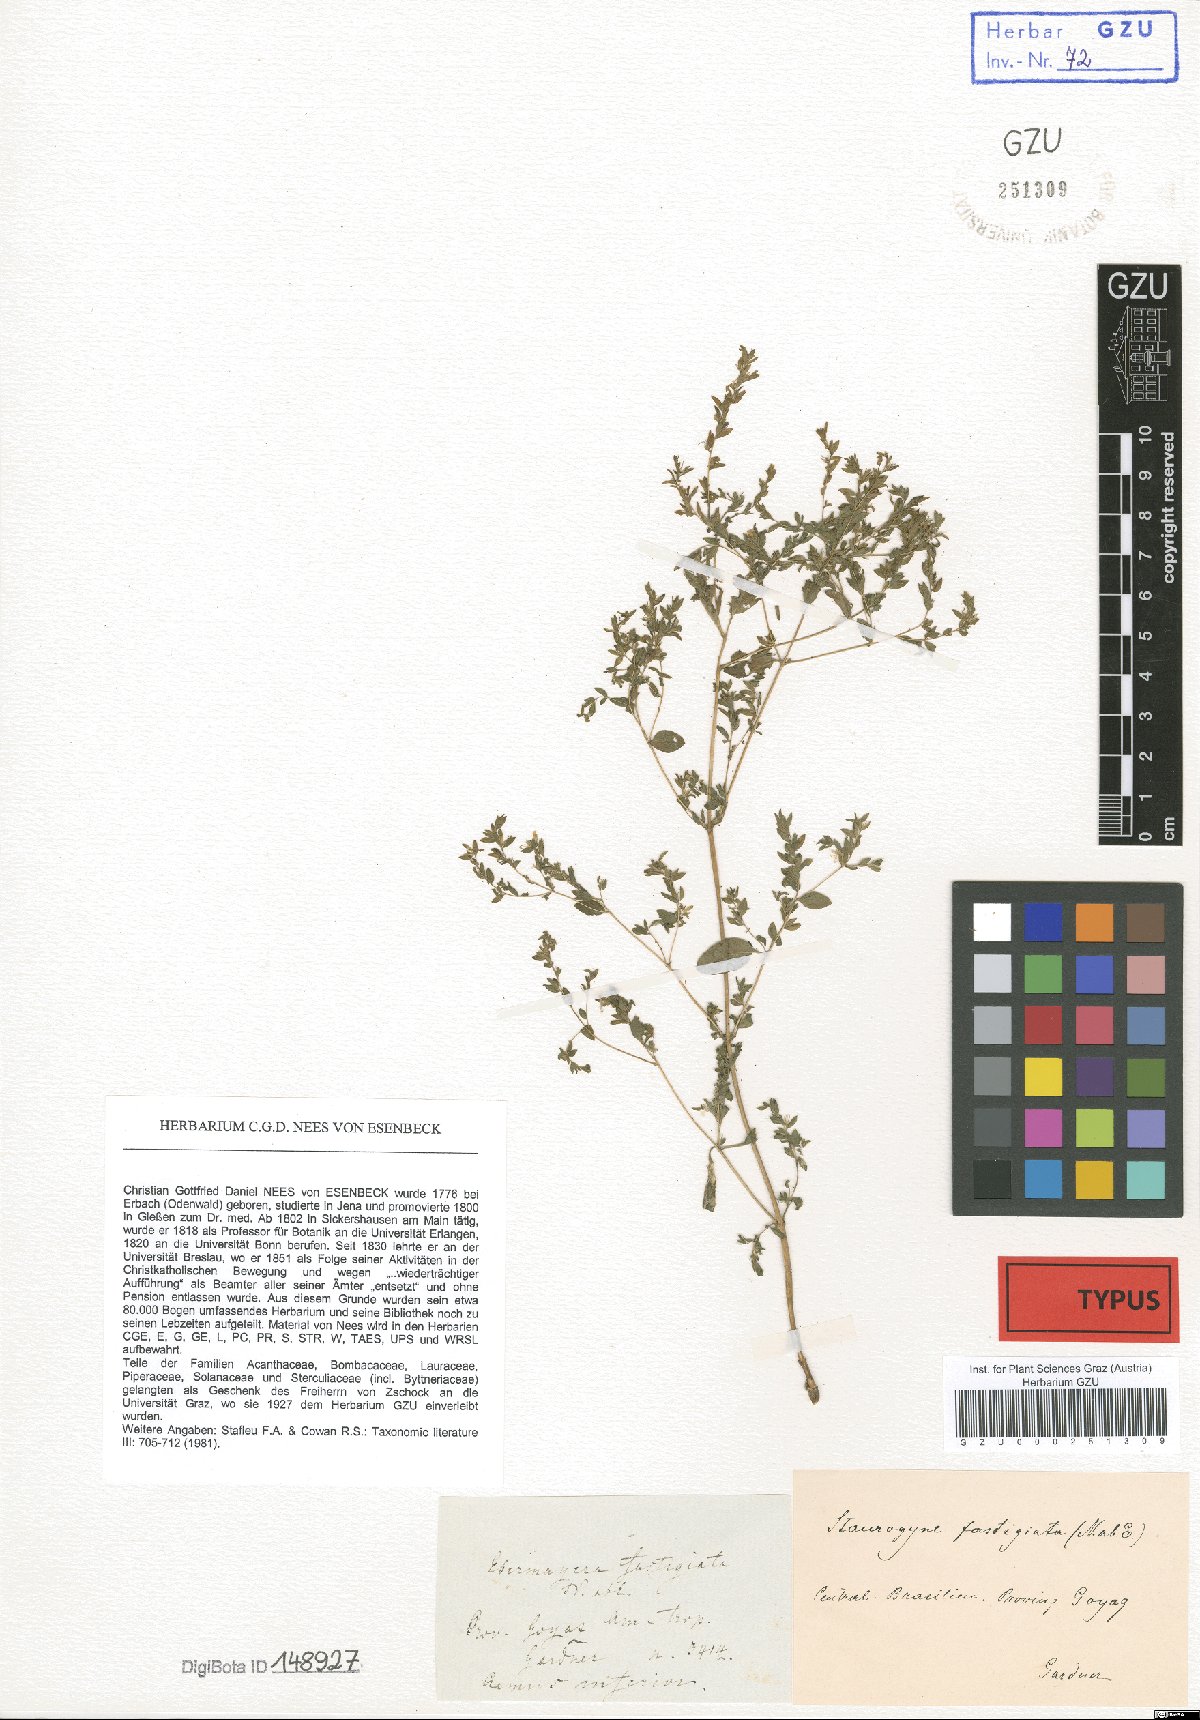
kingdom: Plantae
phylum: Tracheophyta
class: Magnoliopsida
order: Lamiales
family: Acanthaceae
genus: Staurogyne
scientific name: Staurogyne fastigiata
